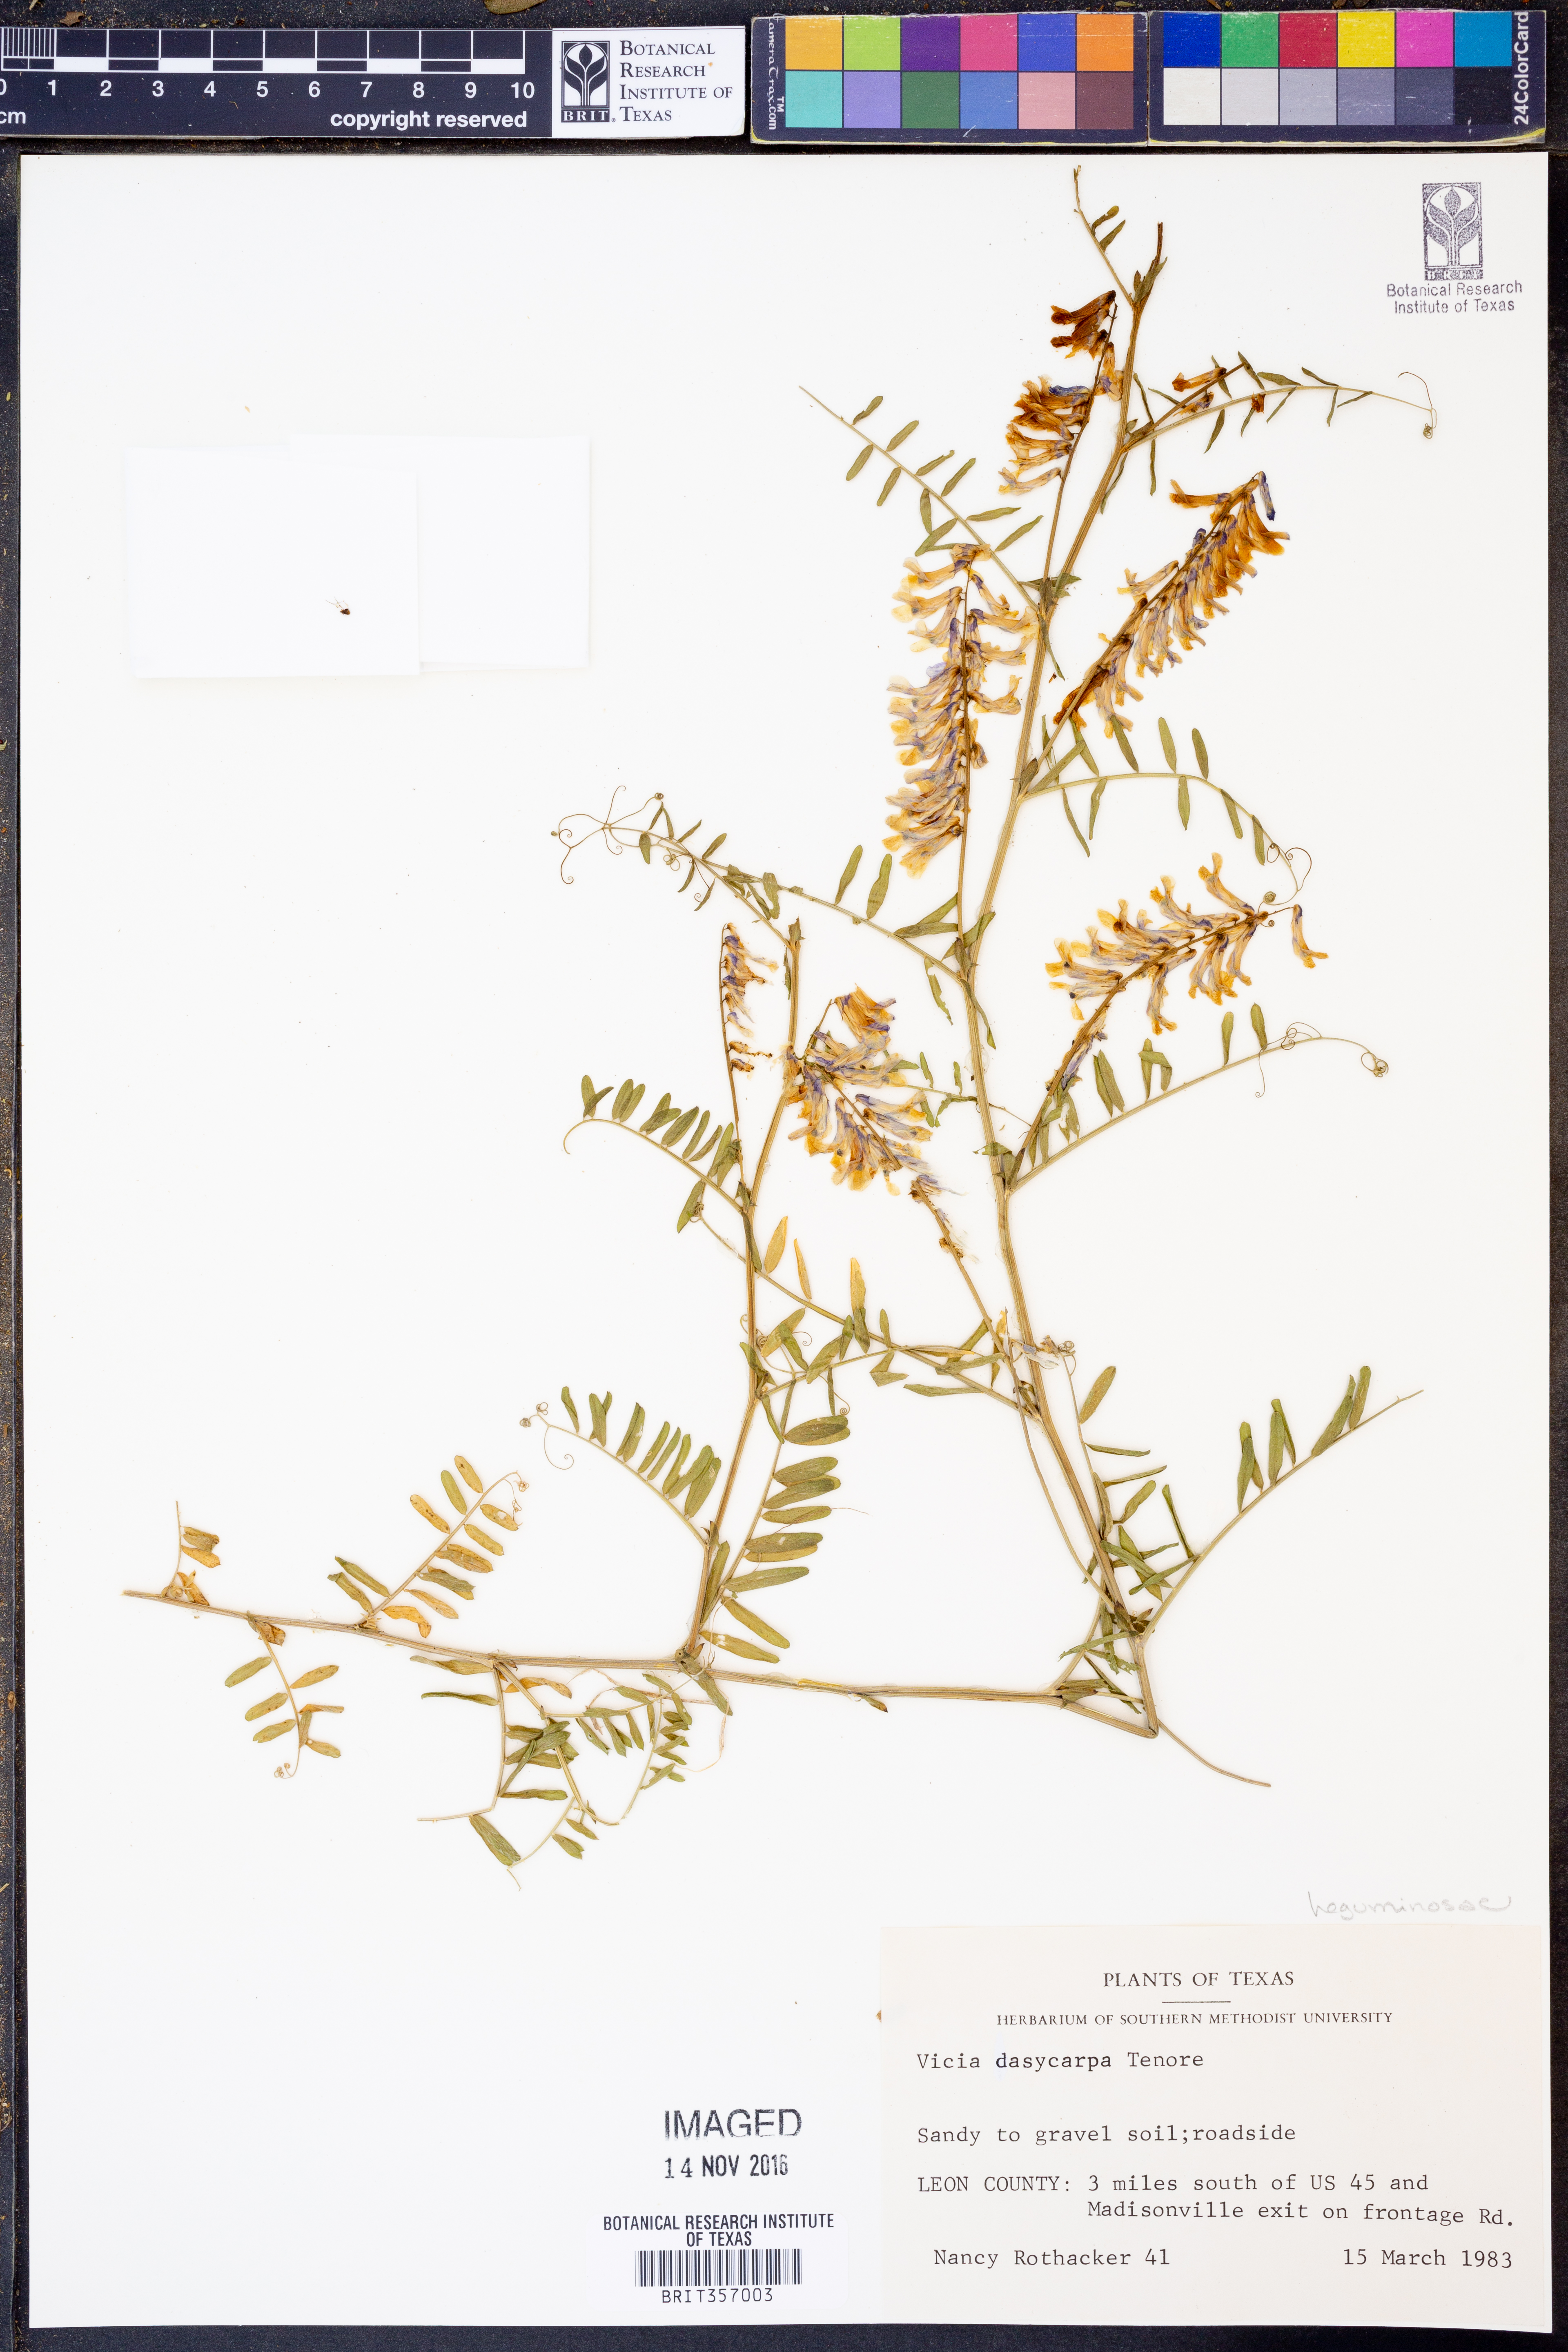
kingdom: Plantae
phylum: Tracheophyta
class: Magnoliopsida
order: Fabales
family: Fabaceae
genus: Vicia
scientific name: Vicia villosa
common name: Fodder vetch
